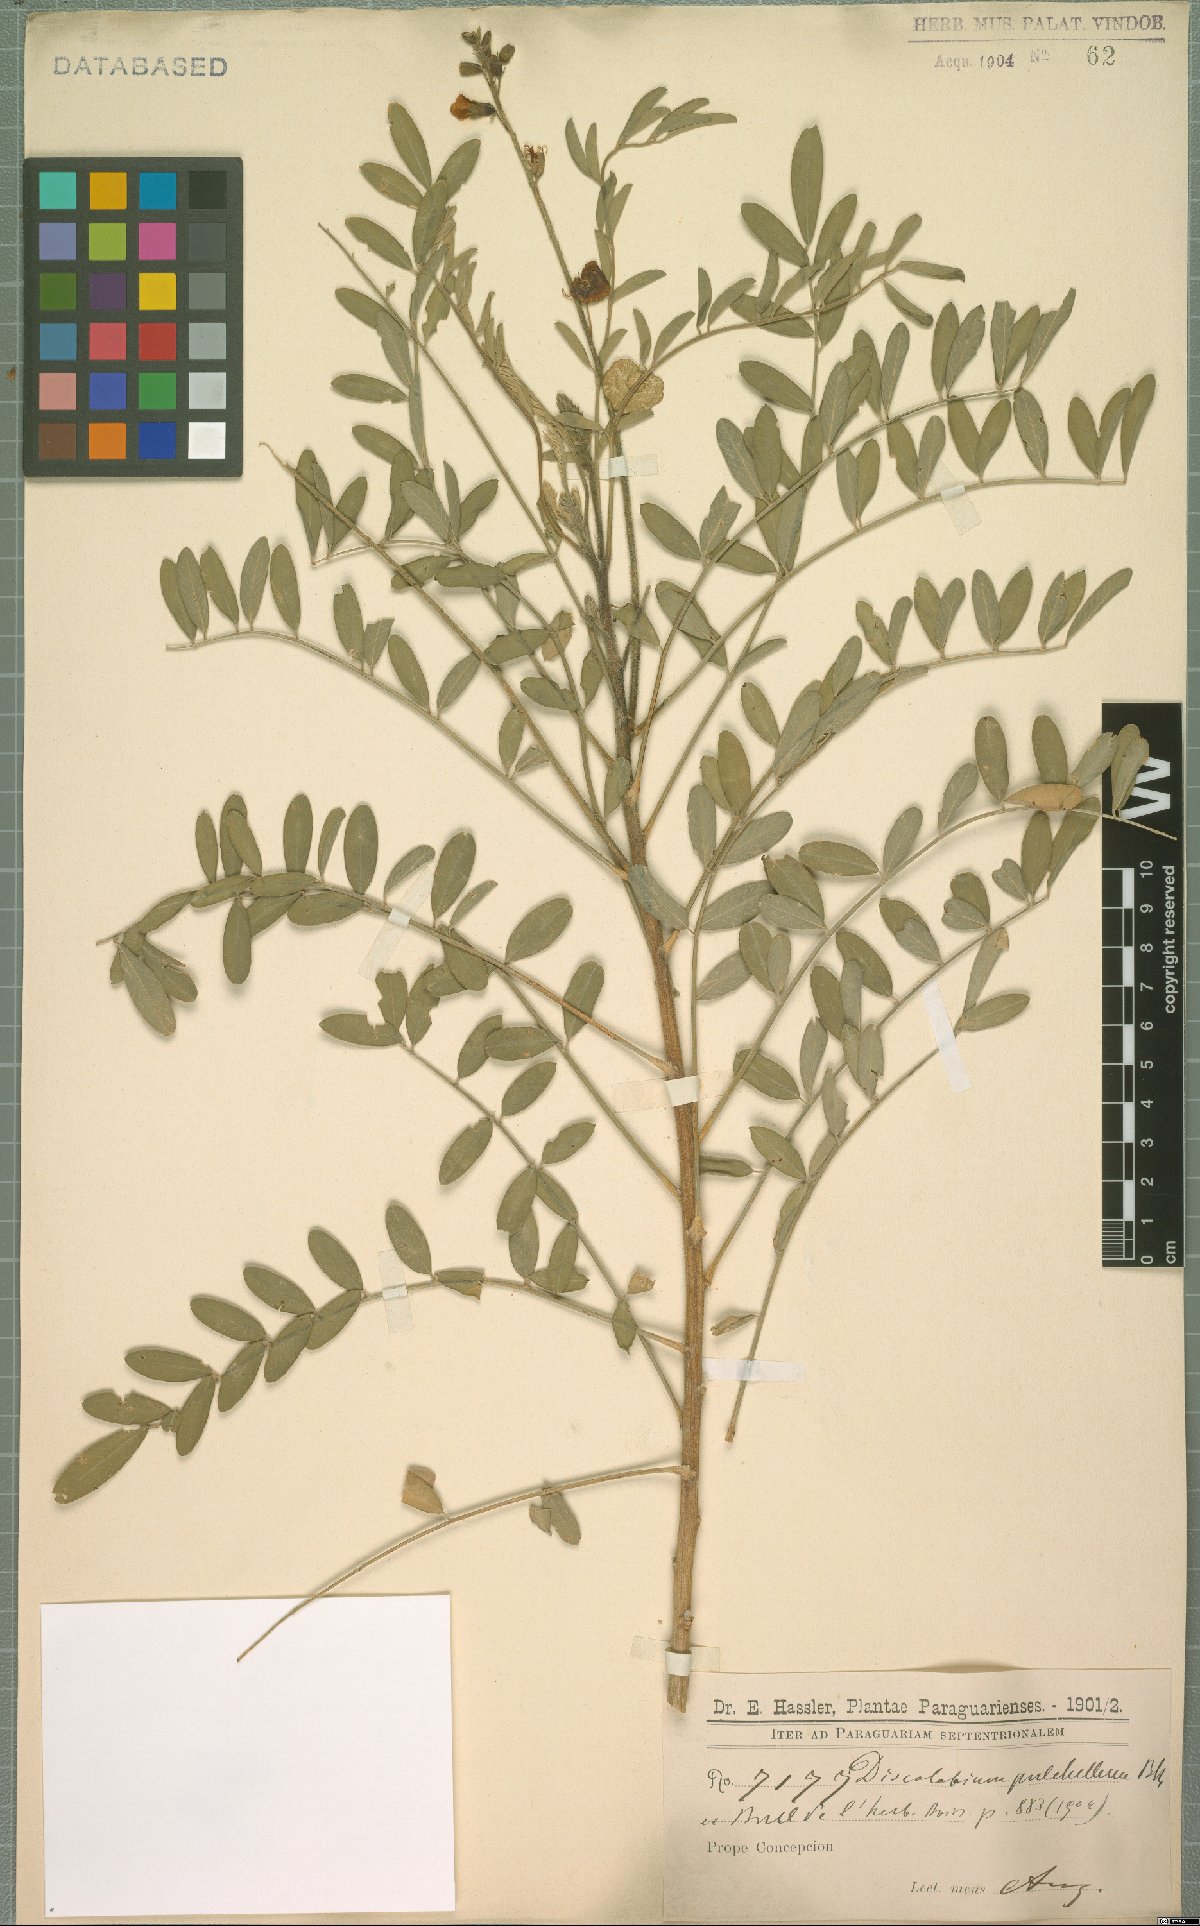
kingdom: Plantae
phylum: Tracheophyta
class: Magnoliopsida
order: Fabales
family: Fabaceae
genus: Discolobium
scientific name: Discolobium pulchellum
